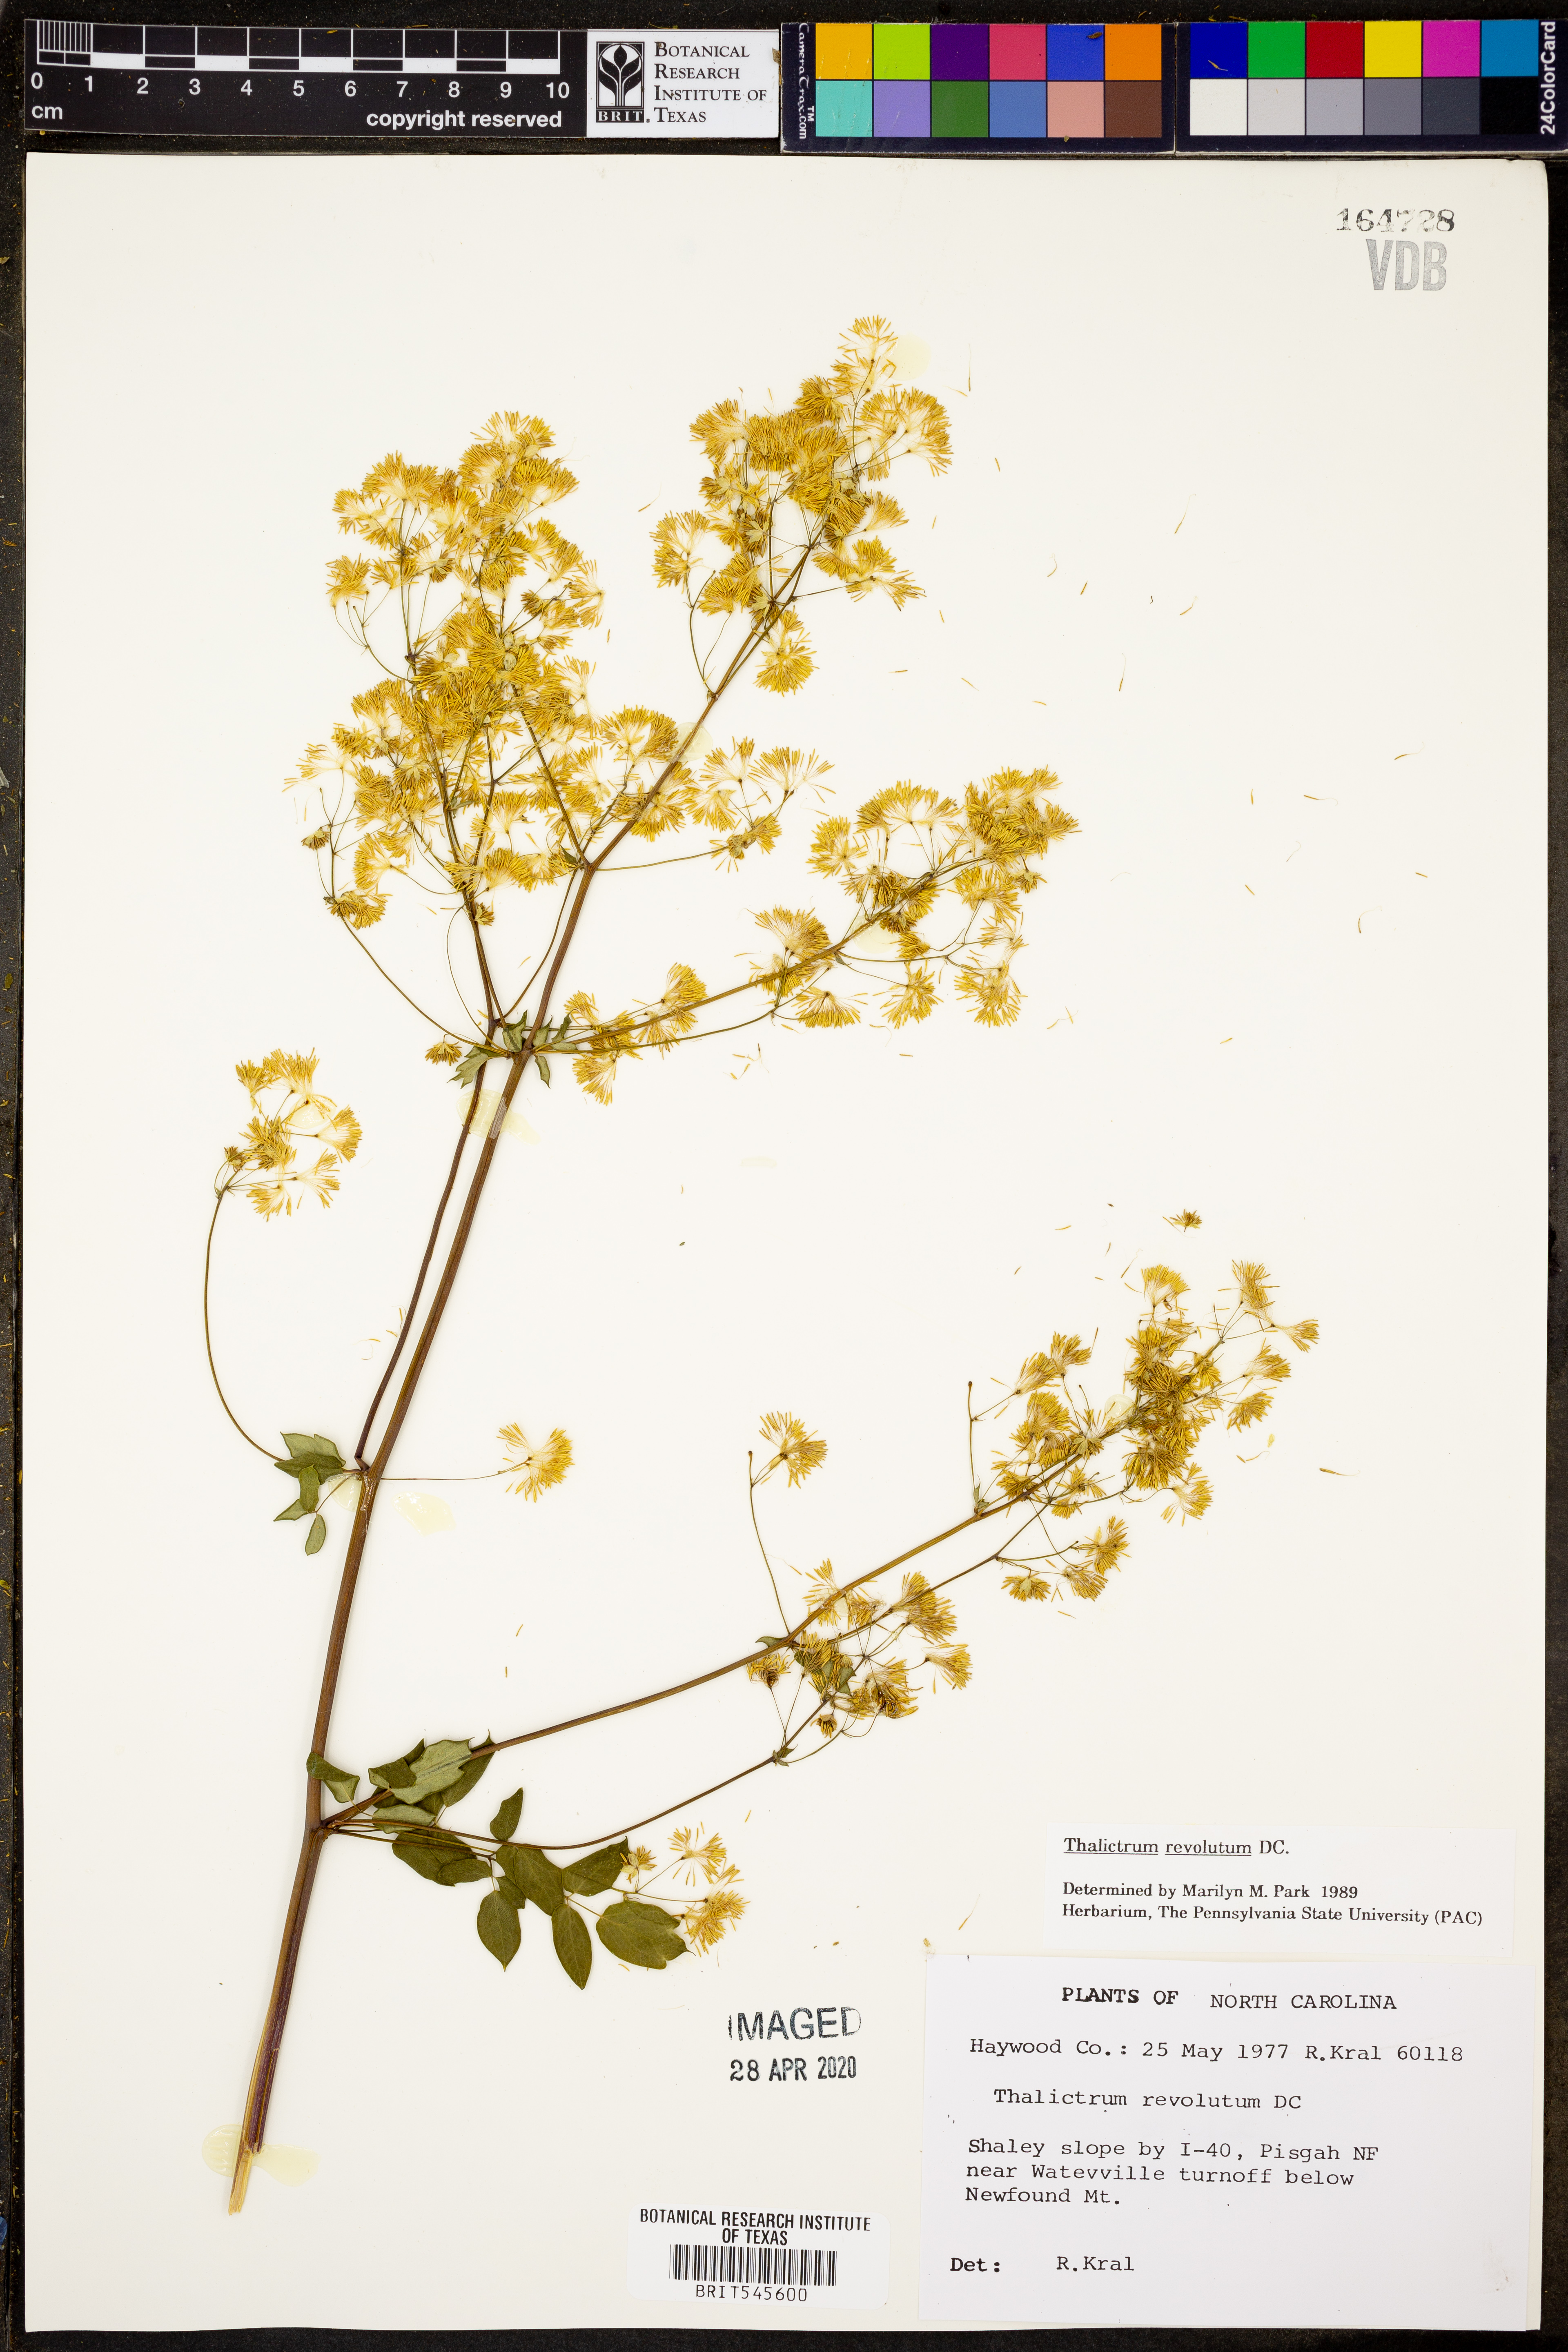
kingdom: Plantae
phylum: Tracheophyta
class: Magnoliopsida
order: Ranunculales
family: Ranunculaceae
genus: Thalictrum
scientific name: Thalictrum revolutum
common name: Waxy meadow-rue
